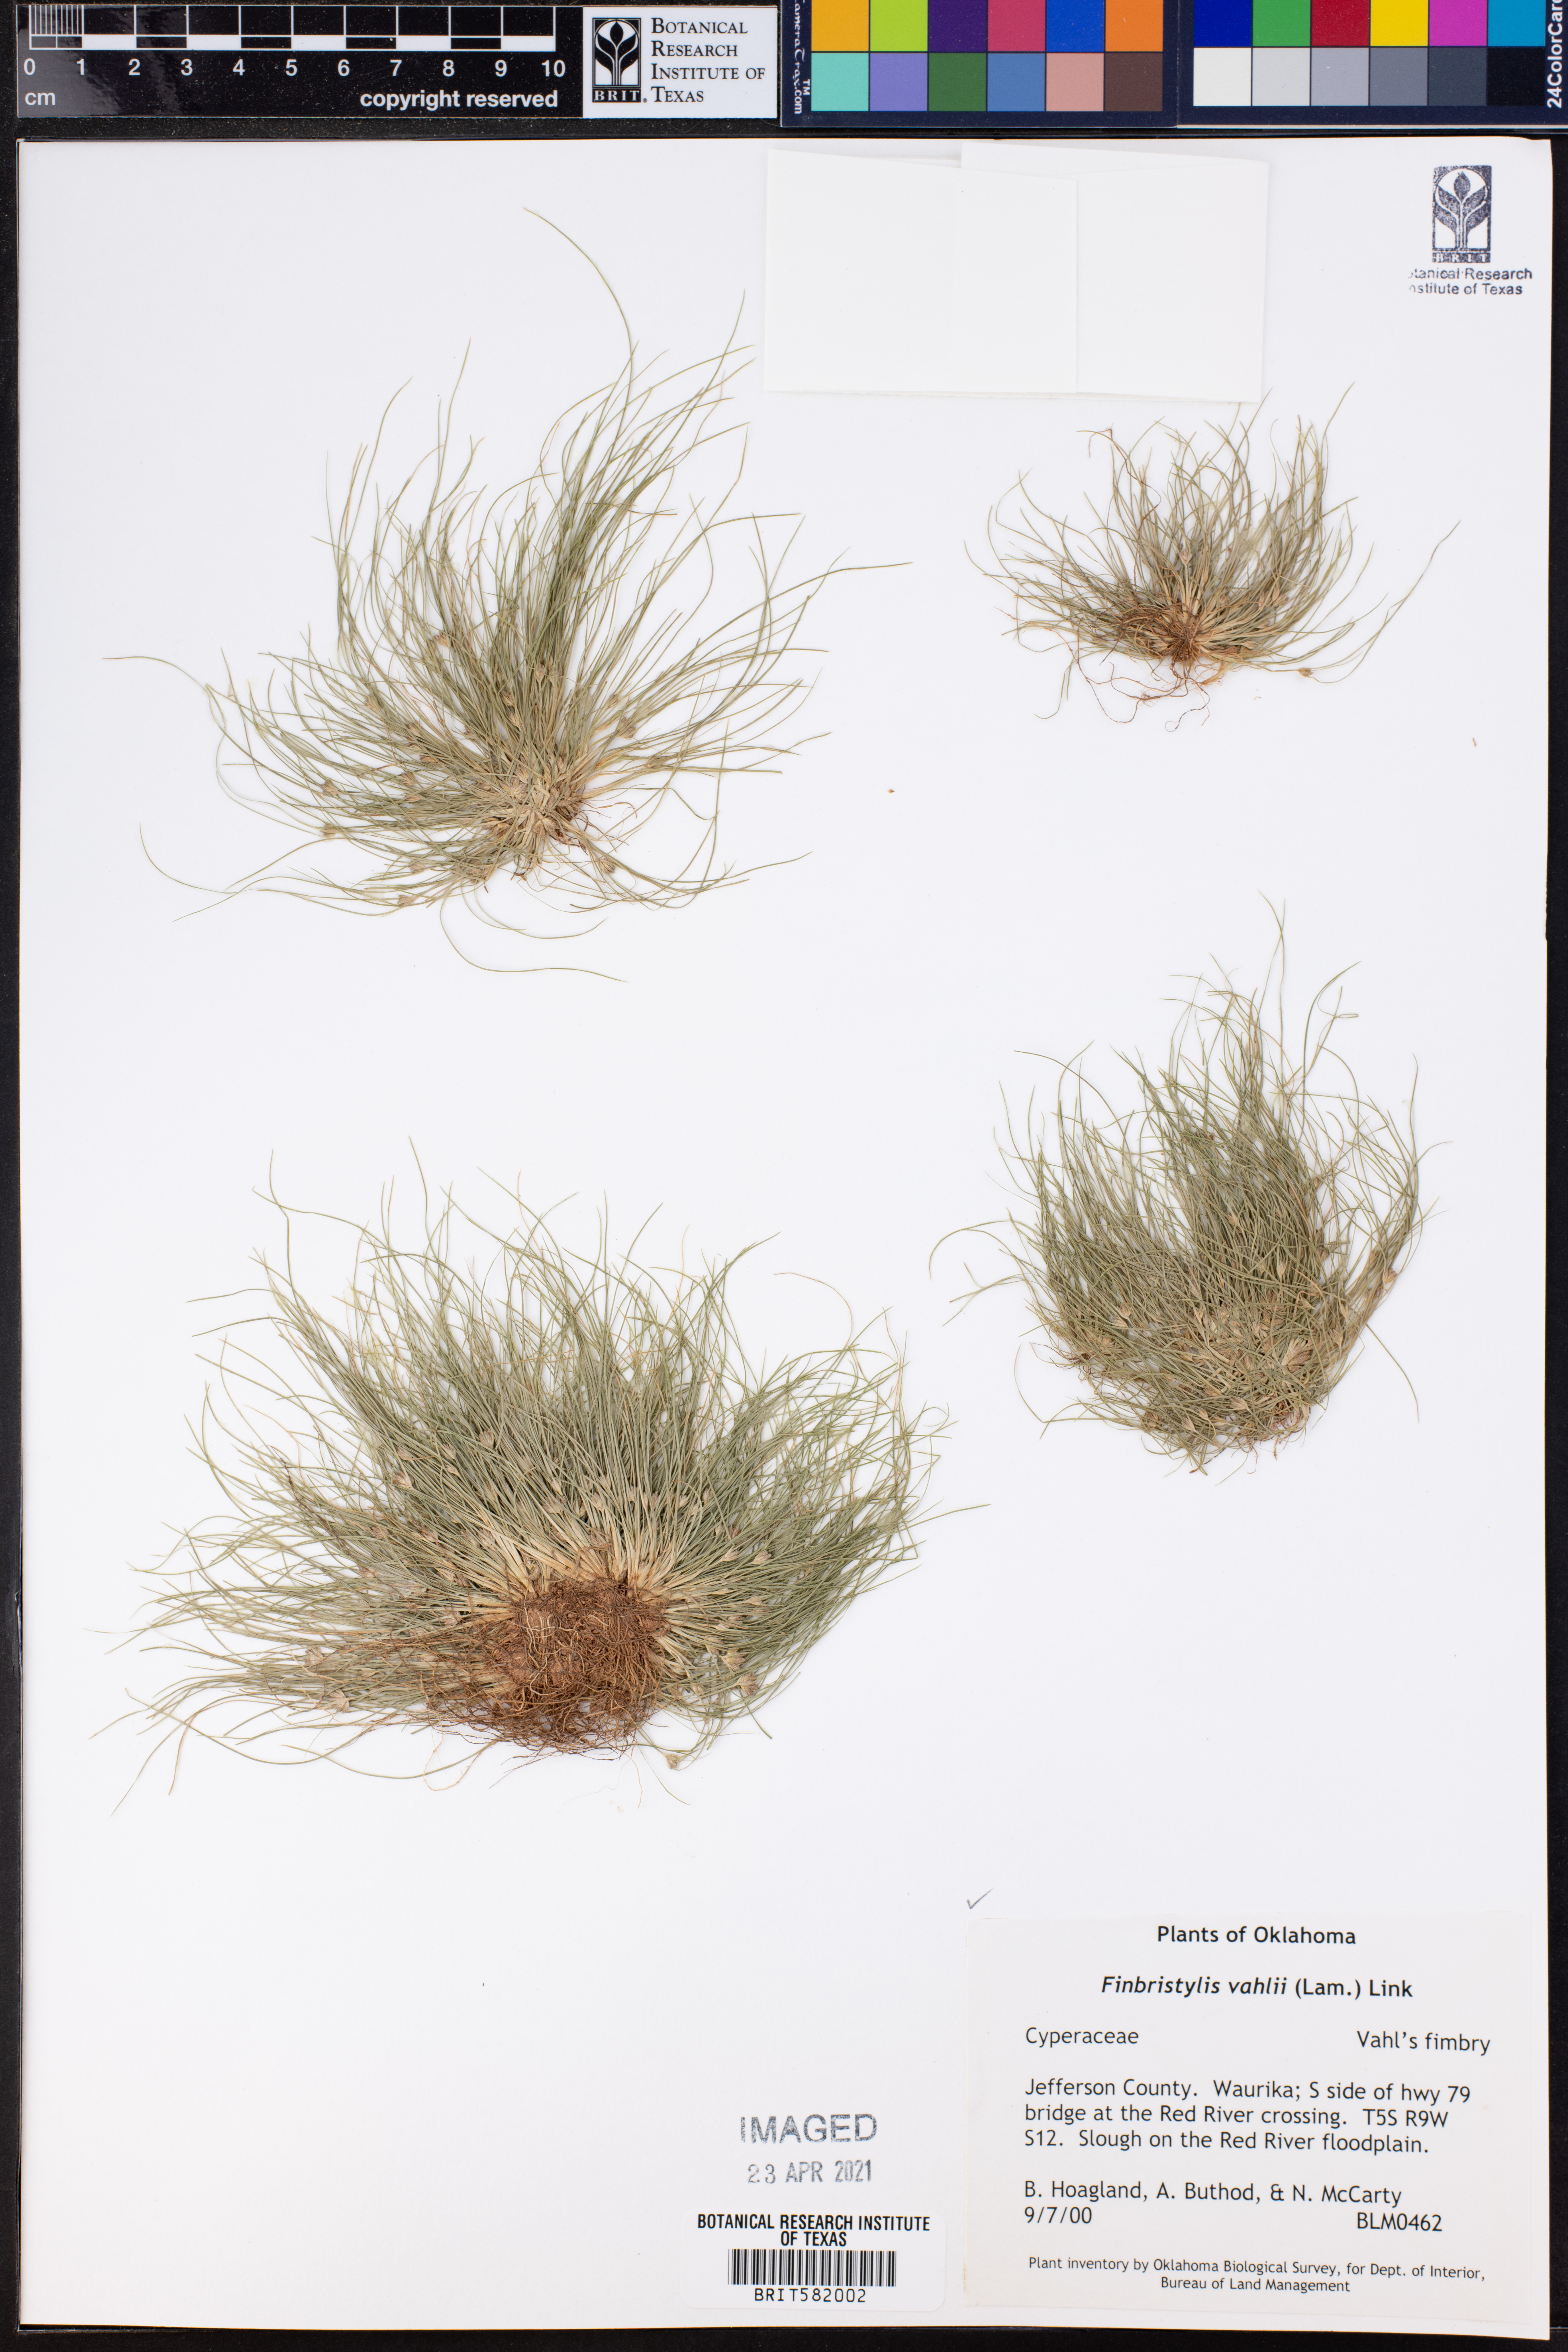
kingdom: Plantae
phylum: Tracheophyta
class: Liliopsida
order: Poales
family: Cyperaceae
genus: Fimbristylis
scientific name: Fimbristylis vahlii
